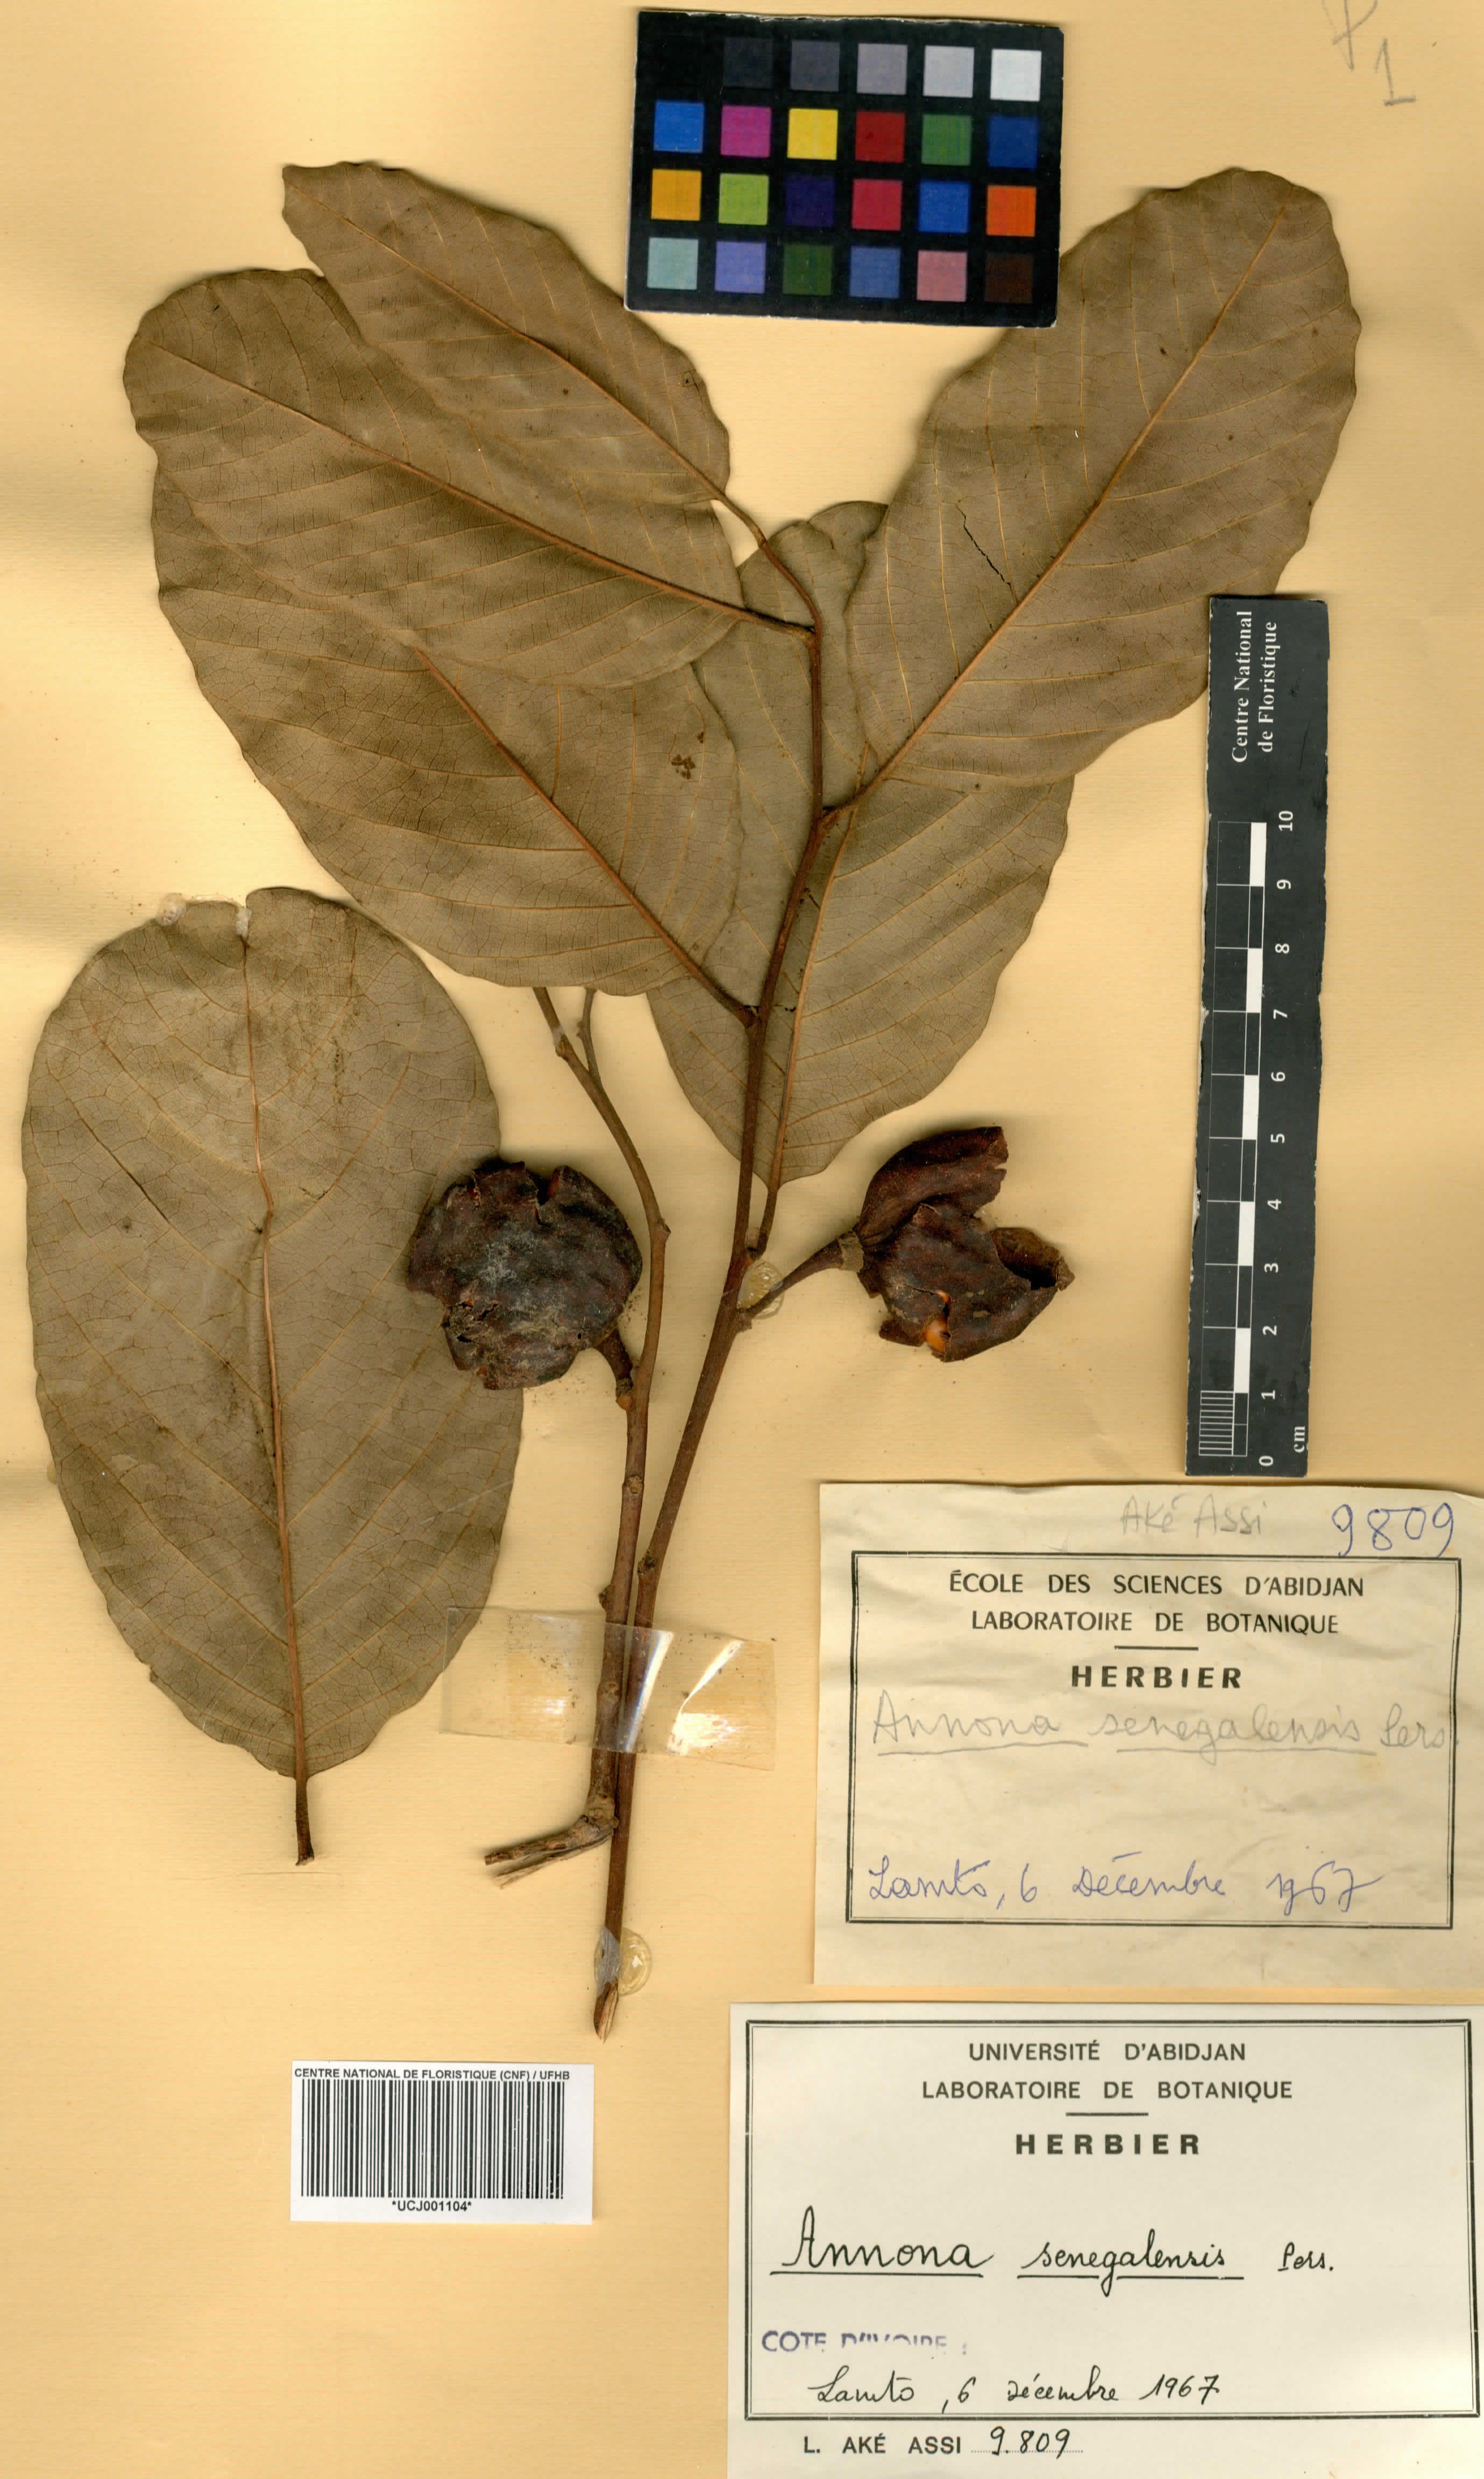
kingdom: Plantae
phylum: Tracheophyta
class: Magnoliopsida
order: Magnoliales
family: Annonaceae
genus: Annona
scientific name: Annona senegalensis
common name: Wild custard-apple
